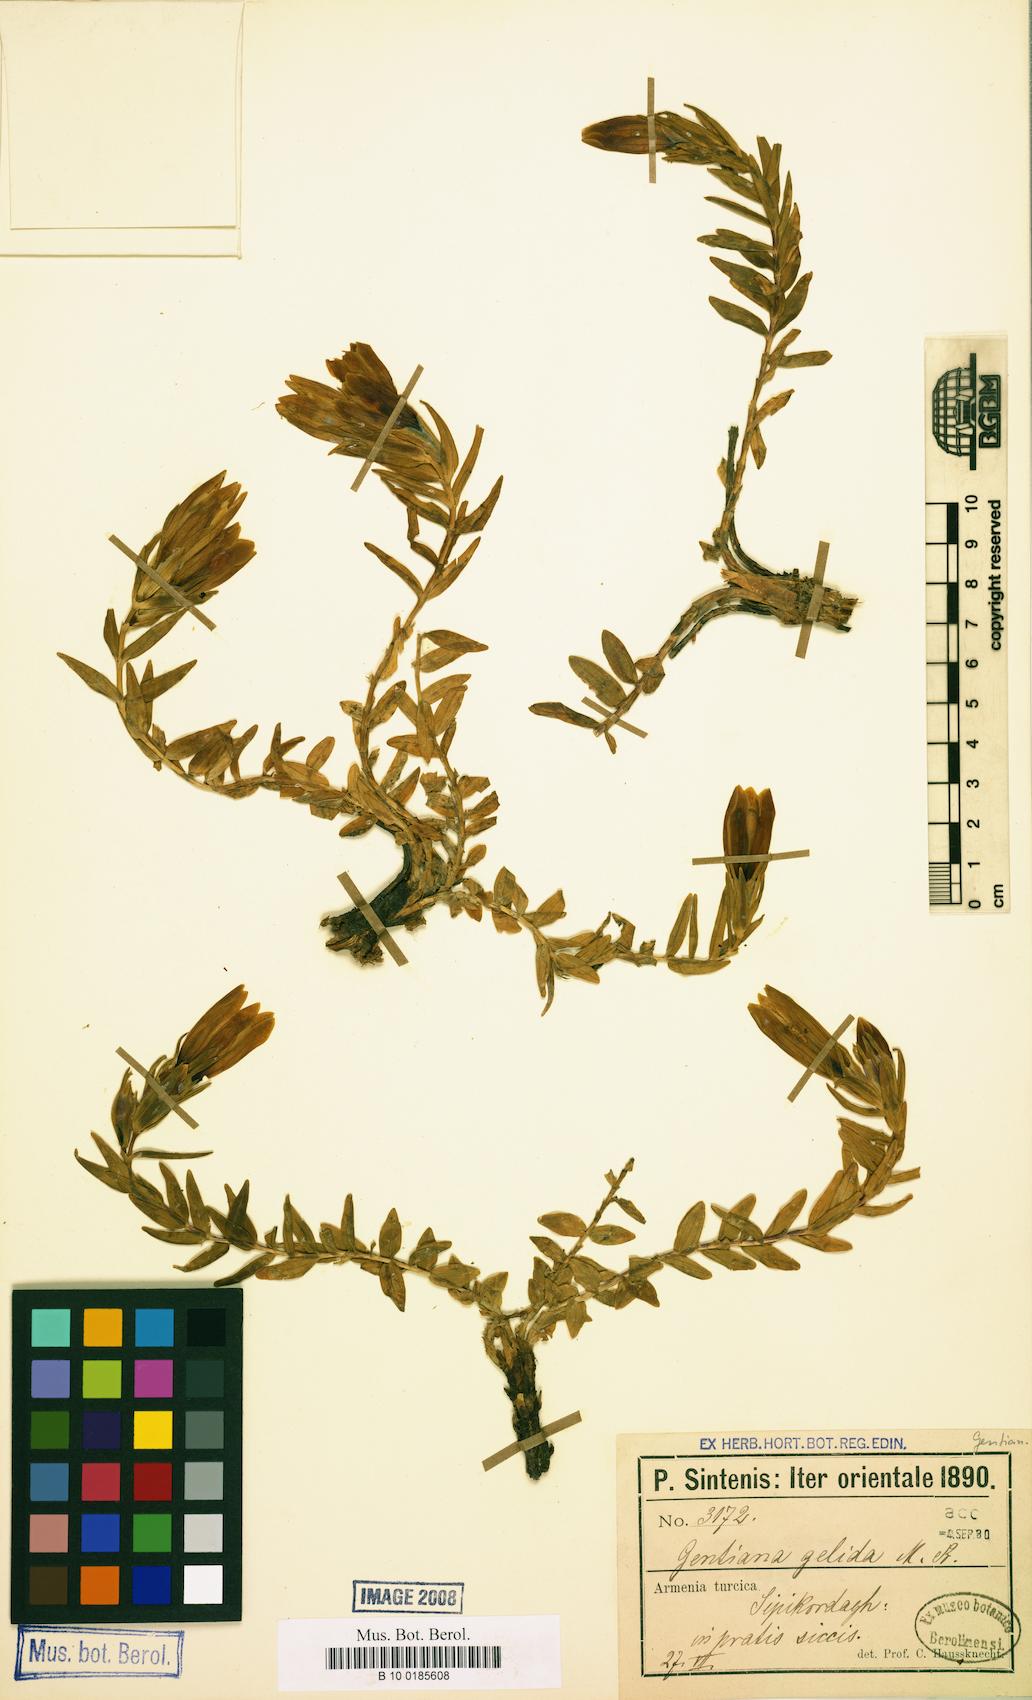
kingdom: Plantae
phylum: Tracheophyta
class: Magnoliopsida
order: Gentianales
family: Gentianaceae
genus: Gentiana
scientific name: Gentiana gelida
